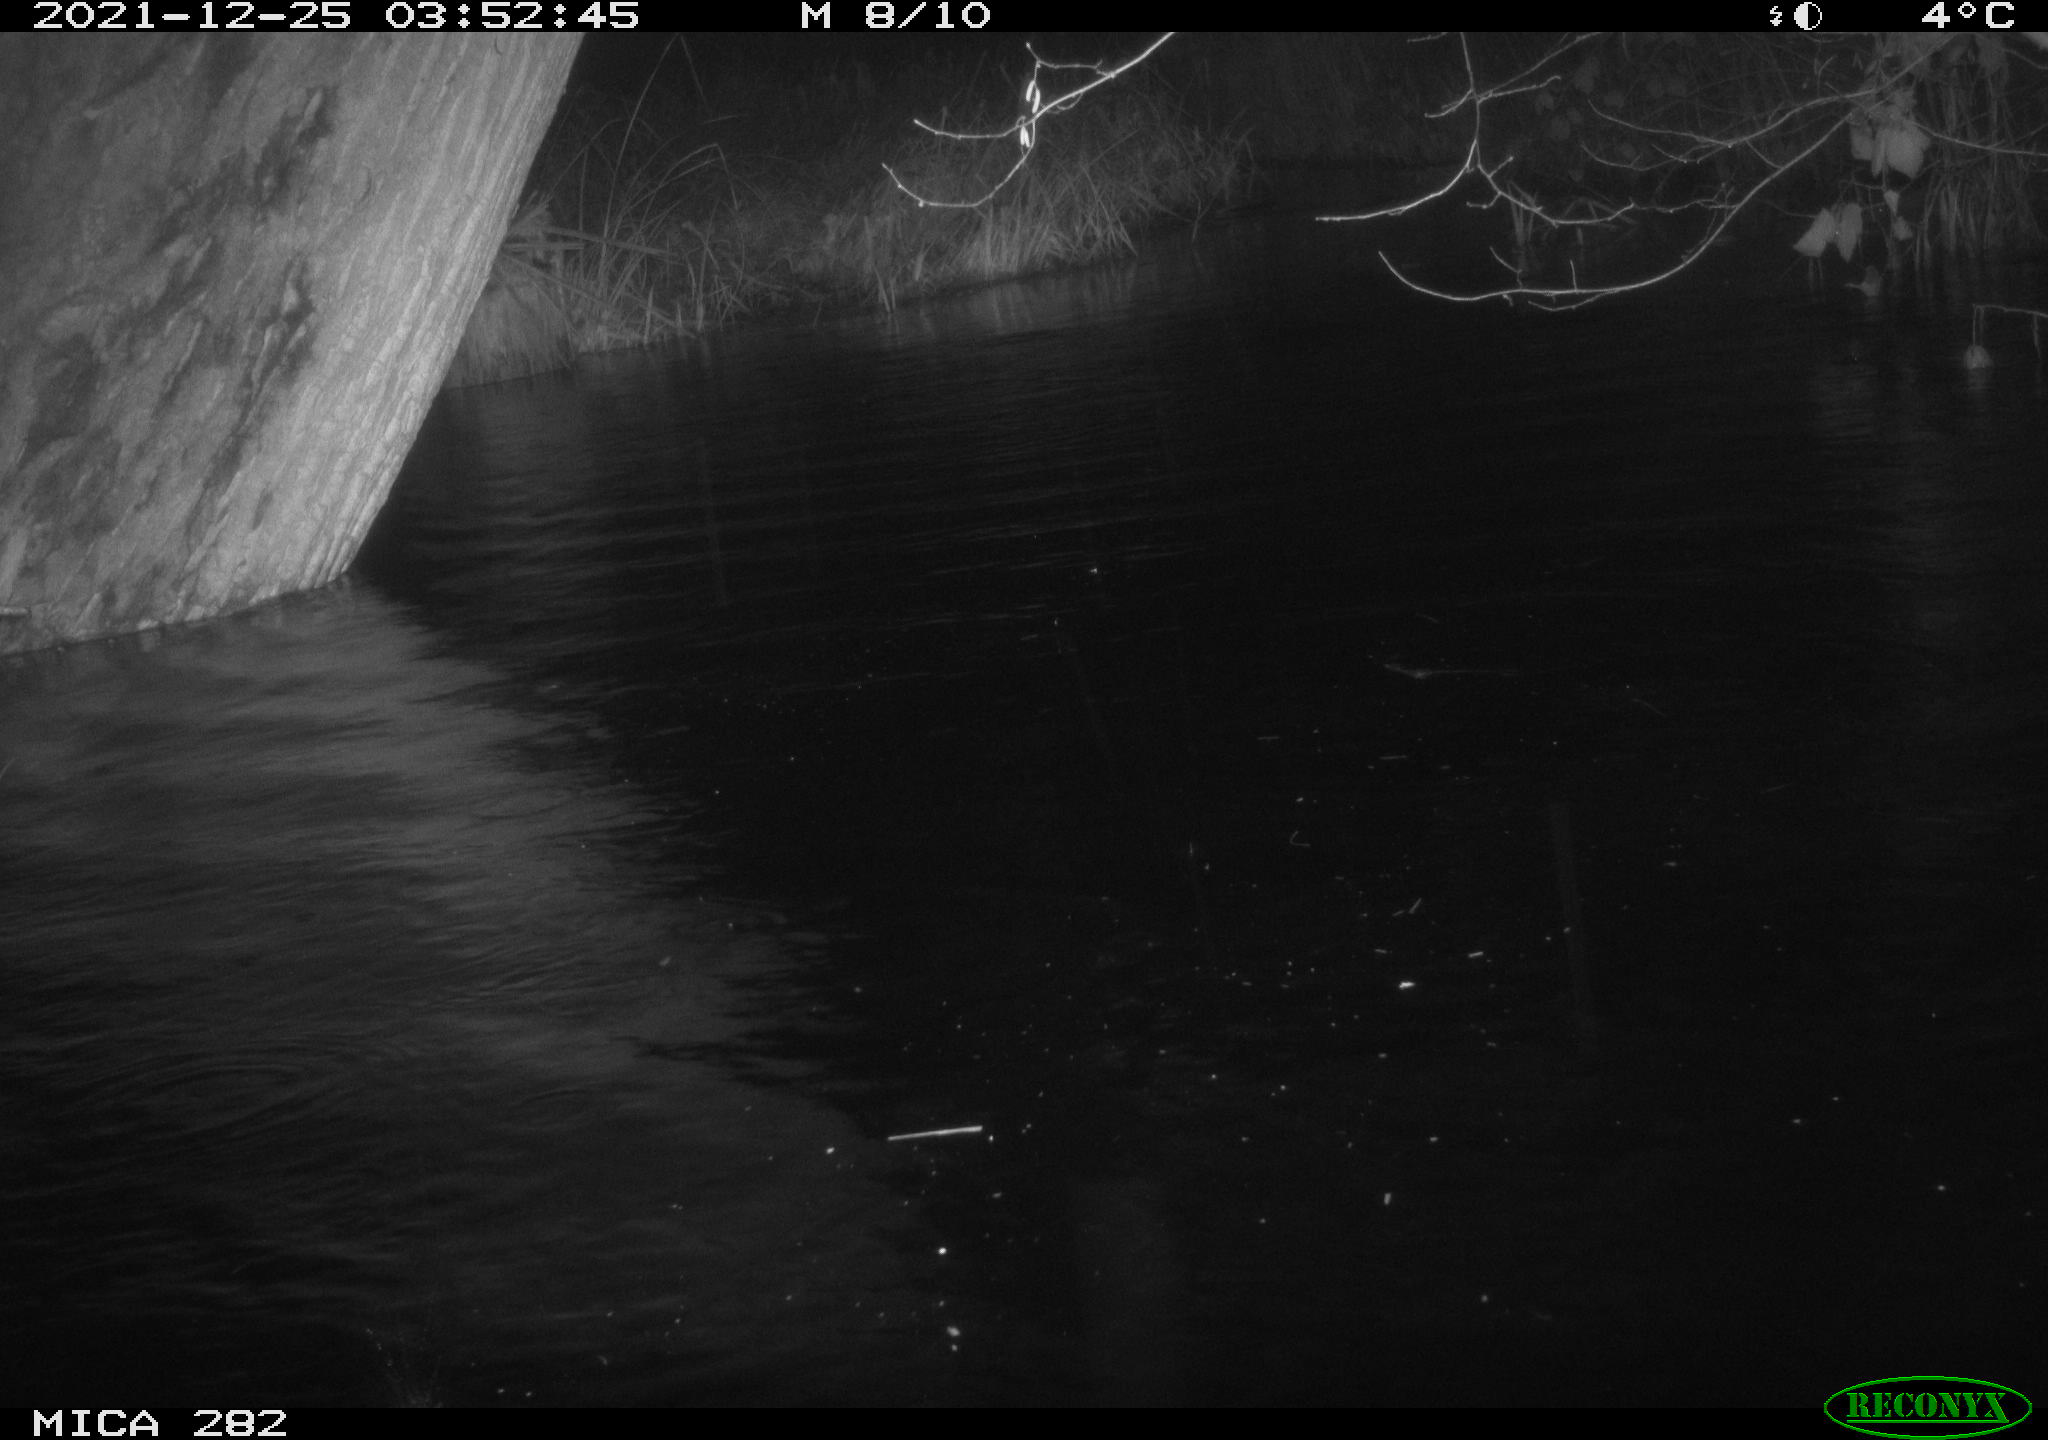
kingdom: Animalia
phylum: Chordata
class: Aves
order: Anseriformes
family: Anatidae
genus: Anas
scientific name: Anas platyrhynchos
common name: Mallard
